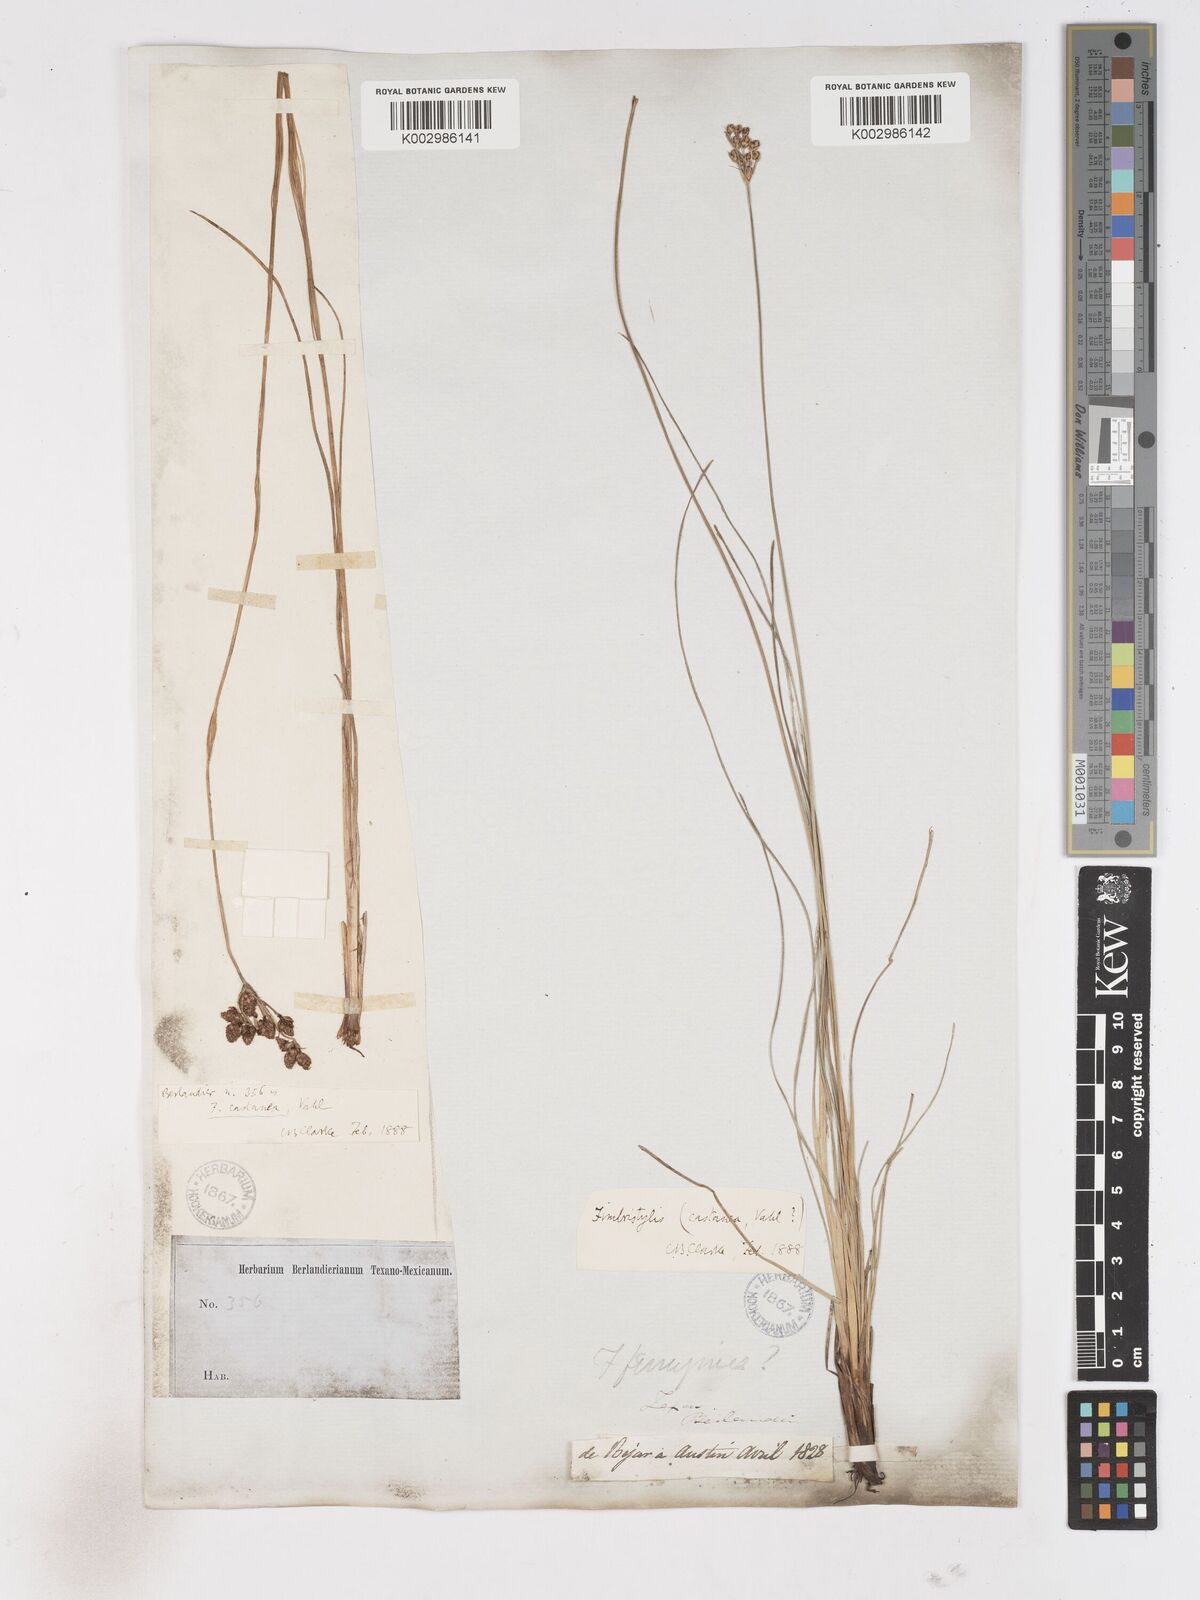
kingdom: Plantae
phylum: Tracheophyta
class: Liliopsida
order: Poales
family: Cyperaceae
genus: Fimbristylis
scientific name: Fimbristylis spadicea
